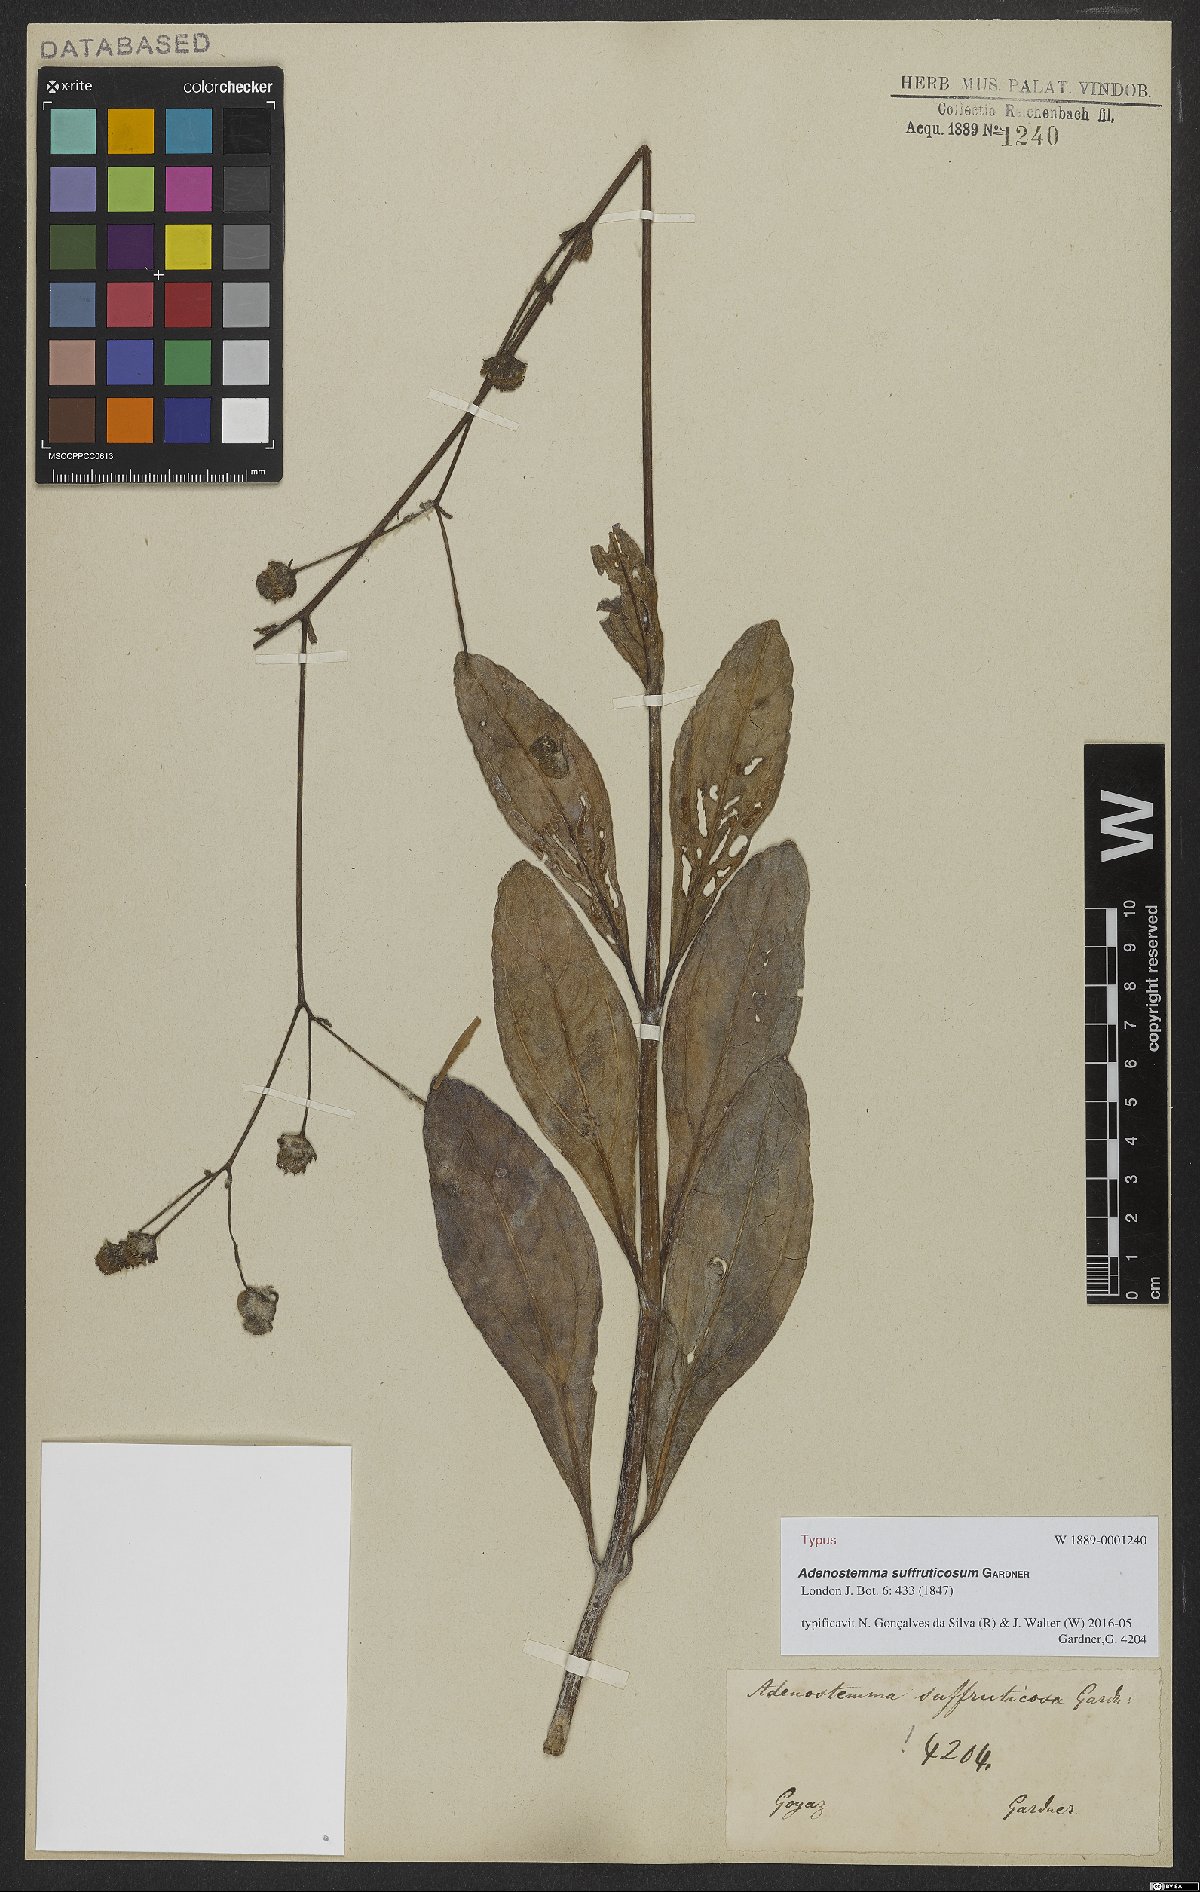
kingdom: Plantae
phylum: Tracheophyta
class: Magnoliopsida
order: Asterales
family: Asteraceae
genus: Adenostemma
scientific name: Adenostemma suffruticosum
